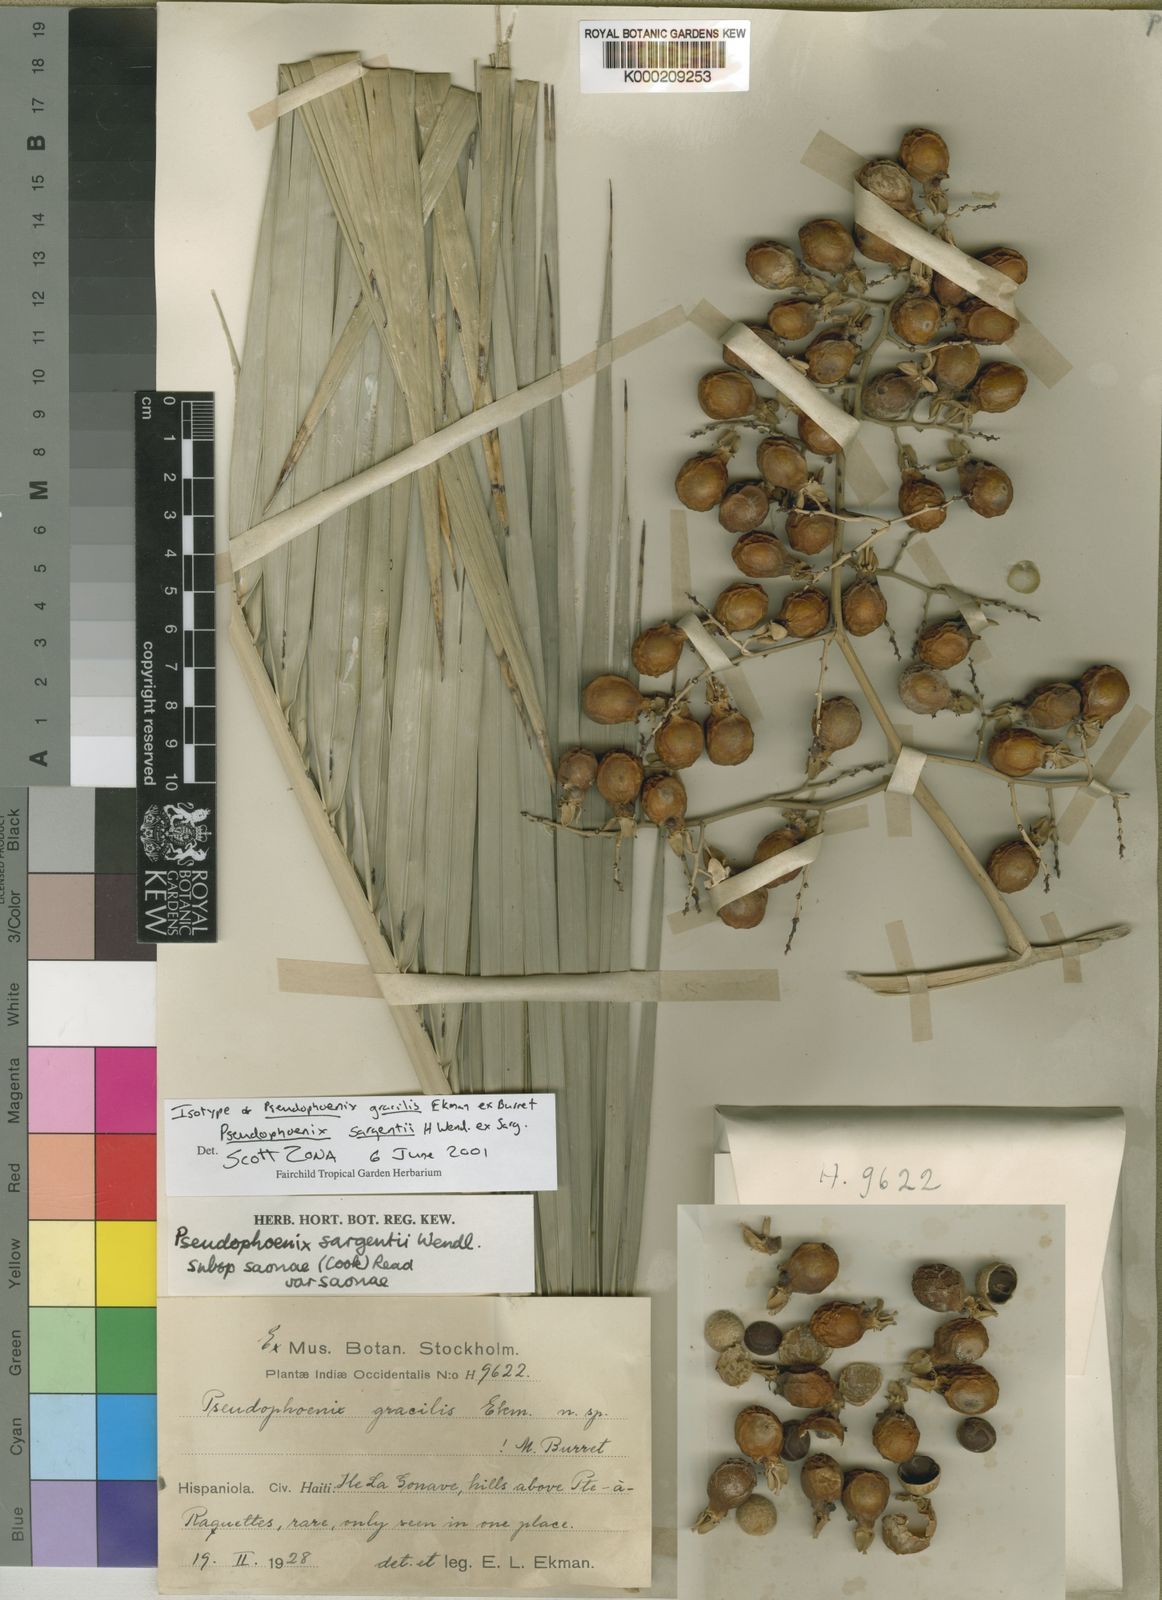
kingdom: Plantae
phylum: Tracheophyta
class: Liliopsida
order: Arecales
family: Arecaceae
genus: Pseudophoenix
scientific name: Pseudophoenix sargentii
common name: Buccaneer palm
